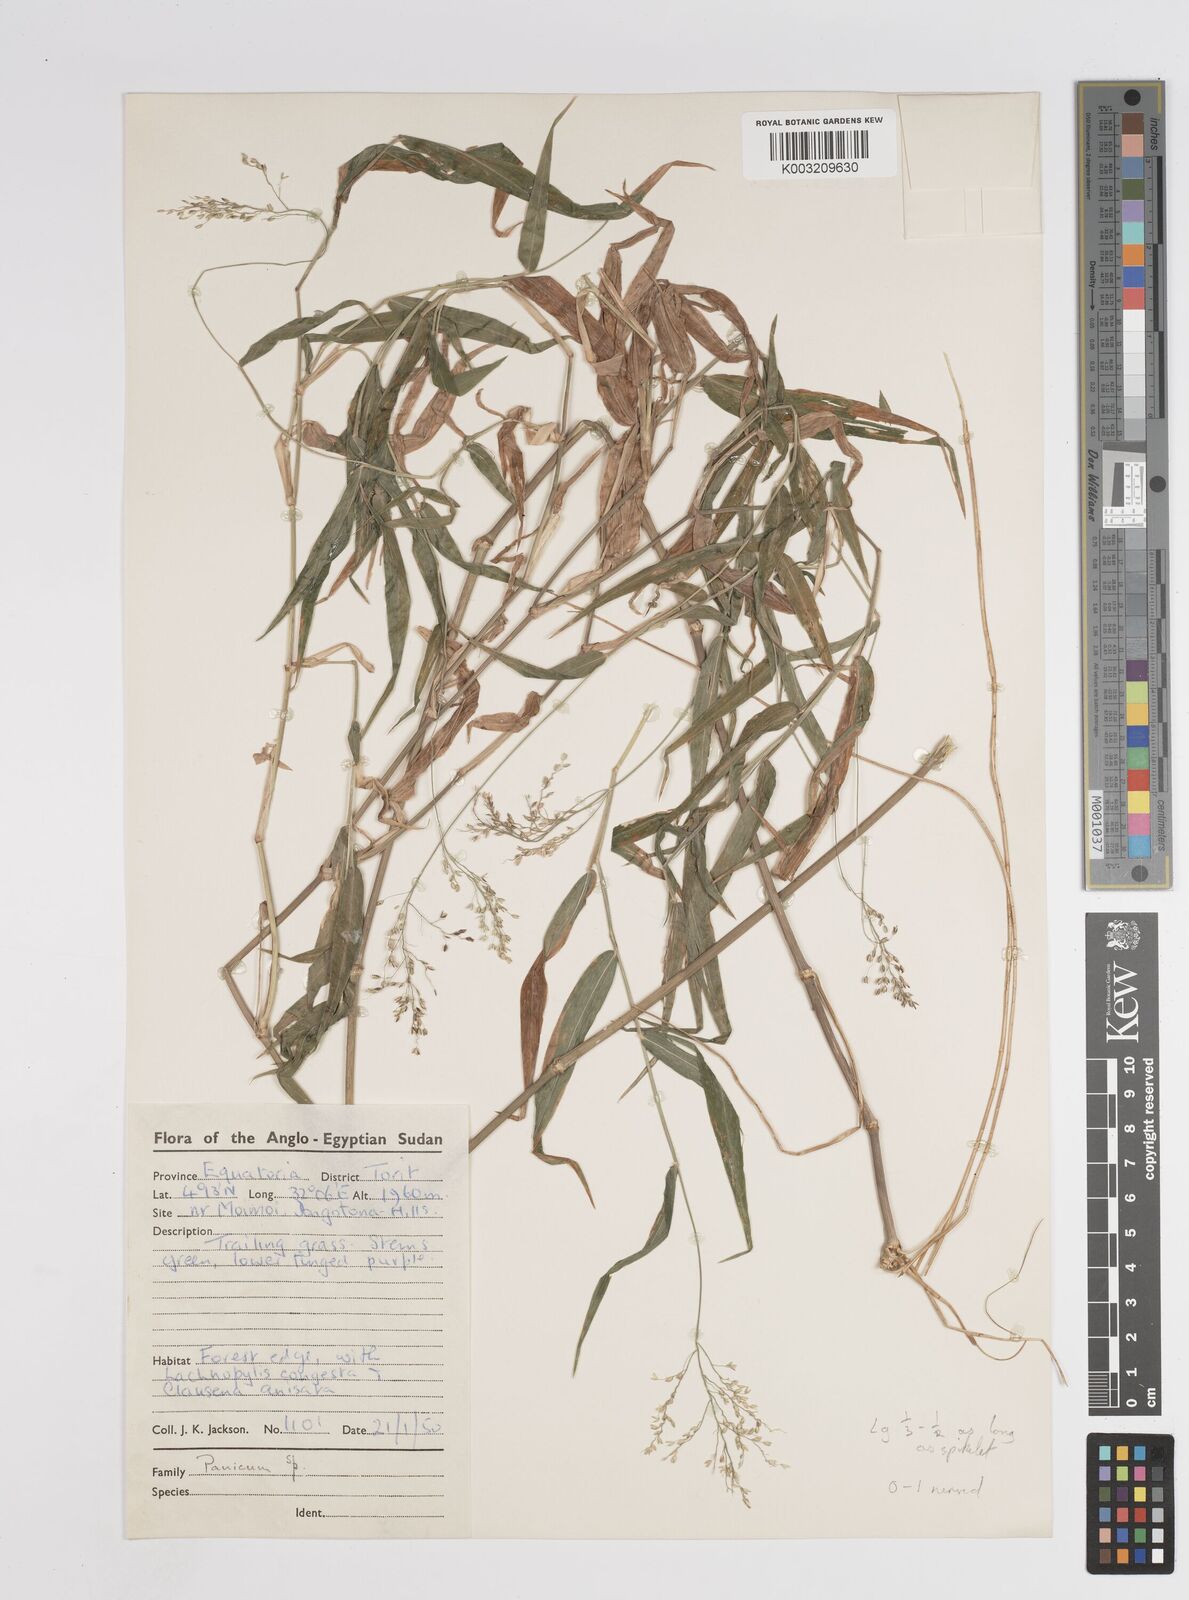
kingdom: Plantae
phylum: Tracheophyta
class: Liliopsida
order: Poales
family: Poaceae
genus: Panicum
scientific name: Panicum monticola
